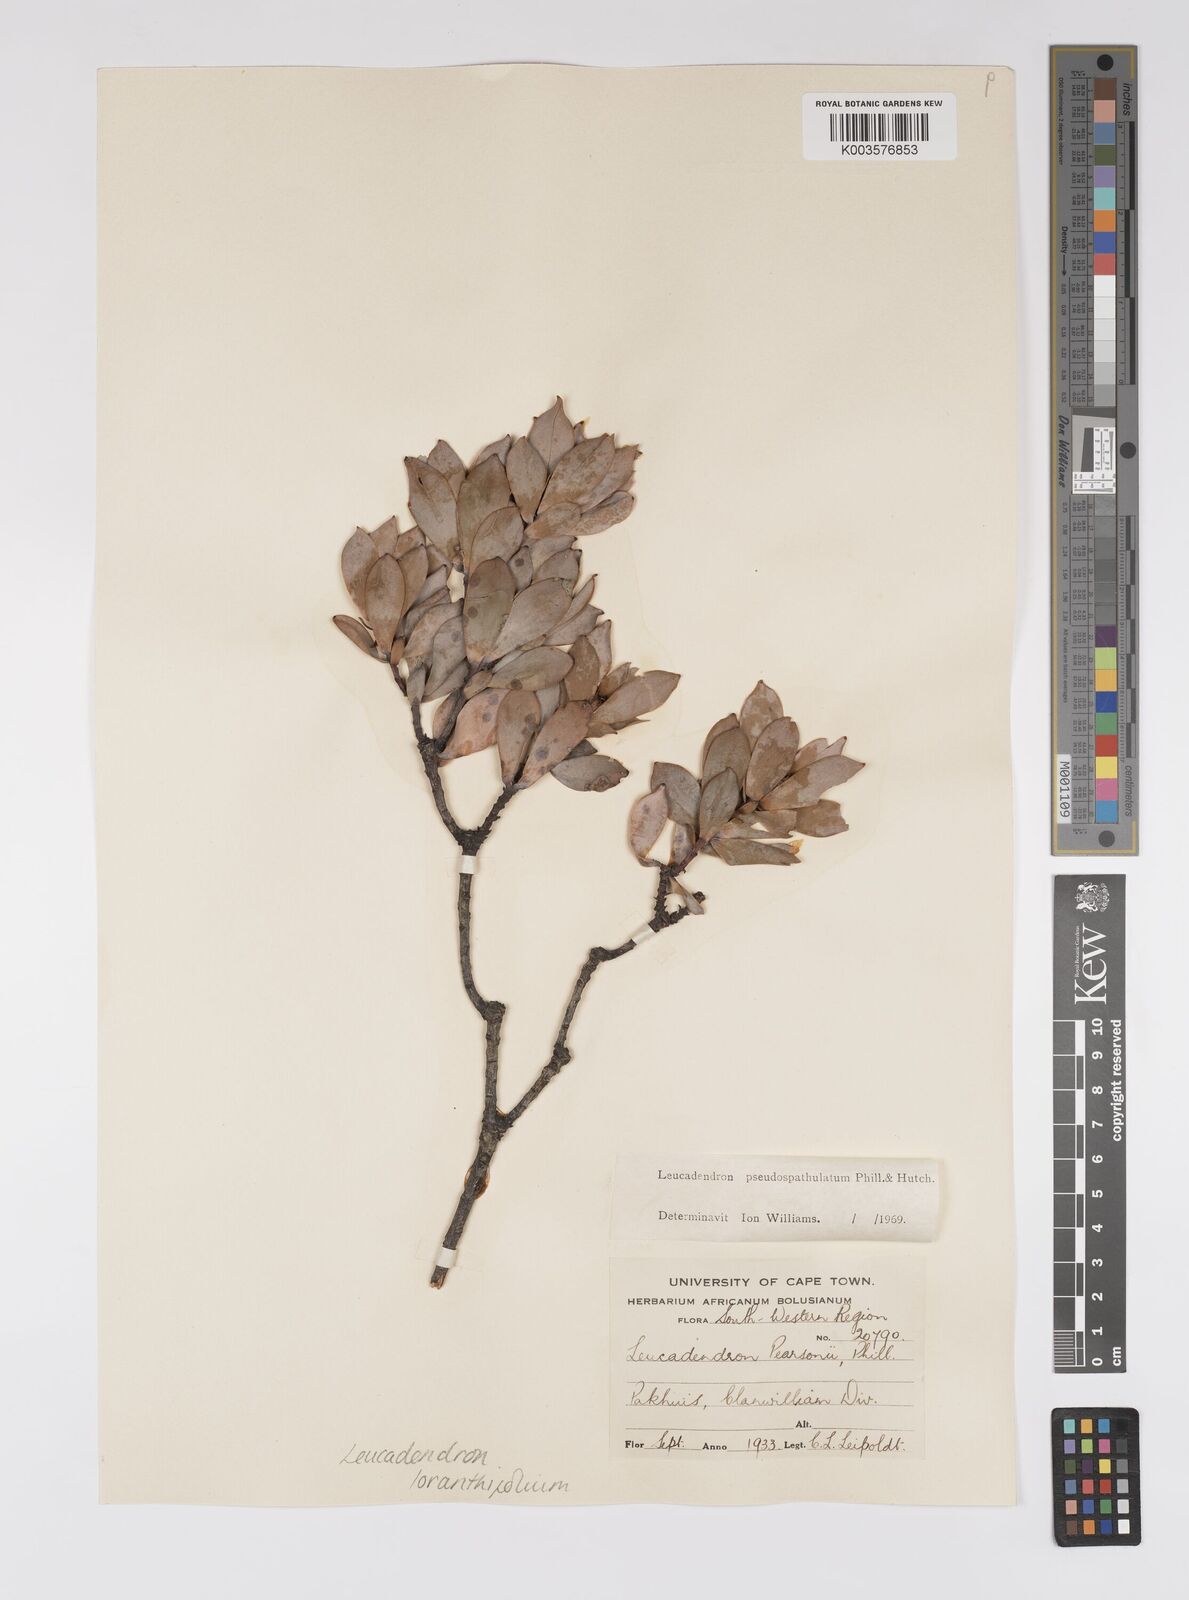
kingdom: Plantae
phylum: Tracheophyta
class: Magnoliopsida
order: Proteales
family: Proteaceae
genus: Leucadendron
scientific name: Leucadendron loranthifolium
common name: Green-flower sunbush
